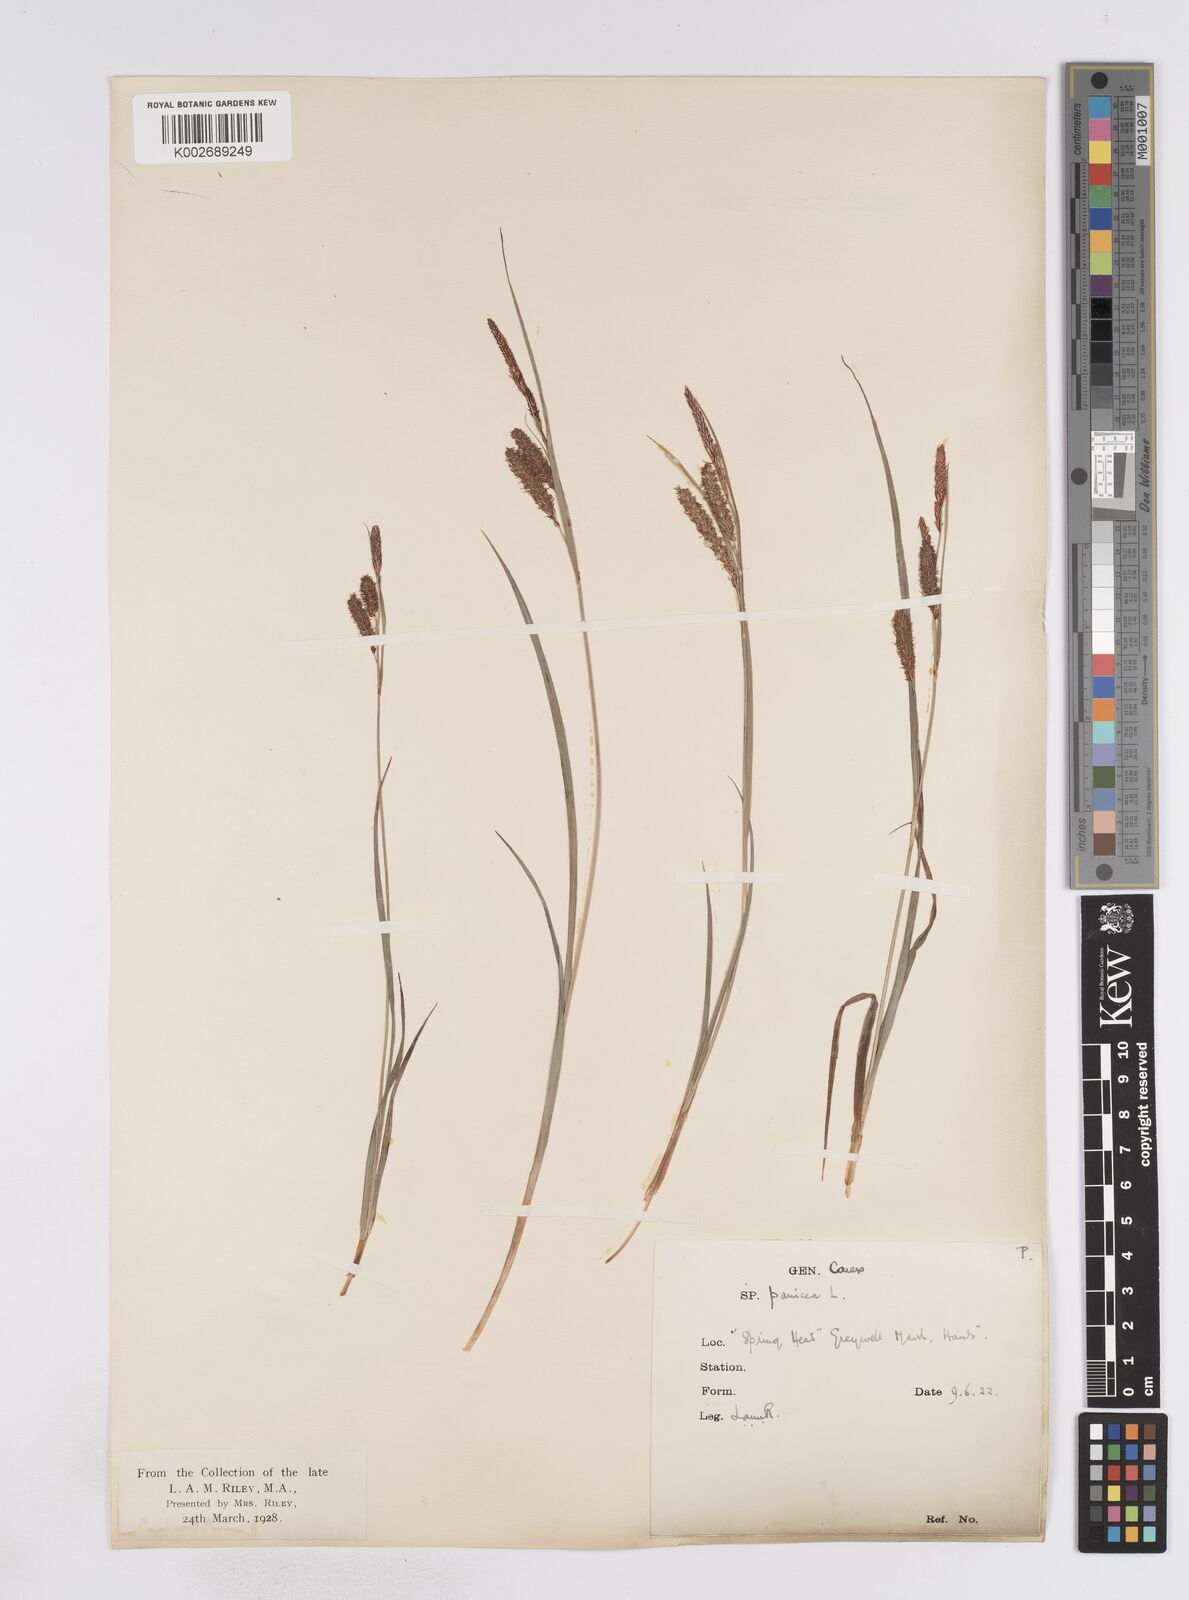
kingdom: Plantae
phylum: Tracheophyta
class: Liliopsida
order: Poales
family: Cyperaceae
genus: Carex
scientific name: Carex flacca
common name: Glaucous sedge
